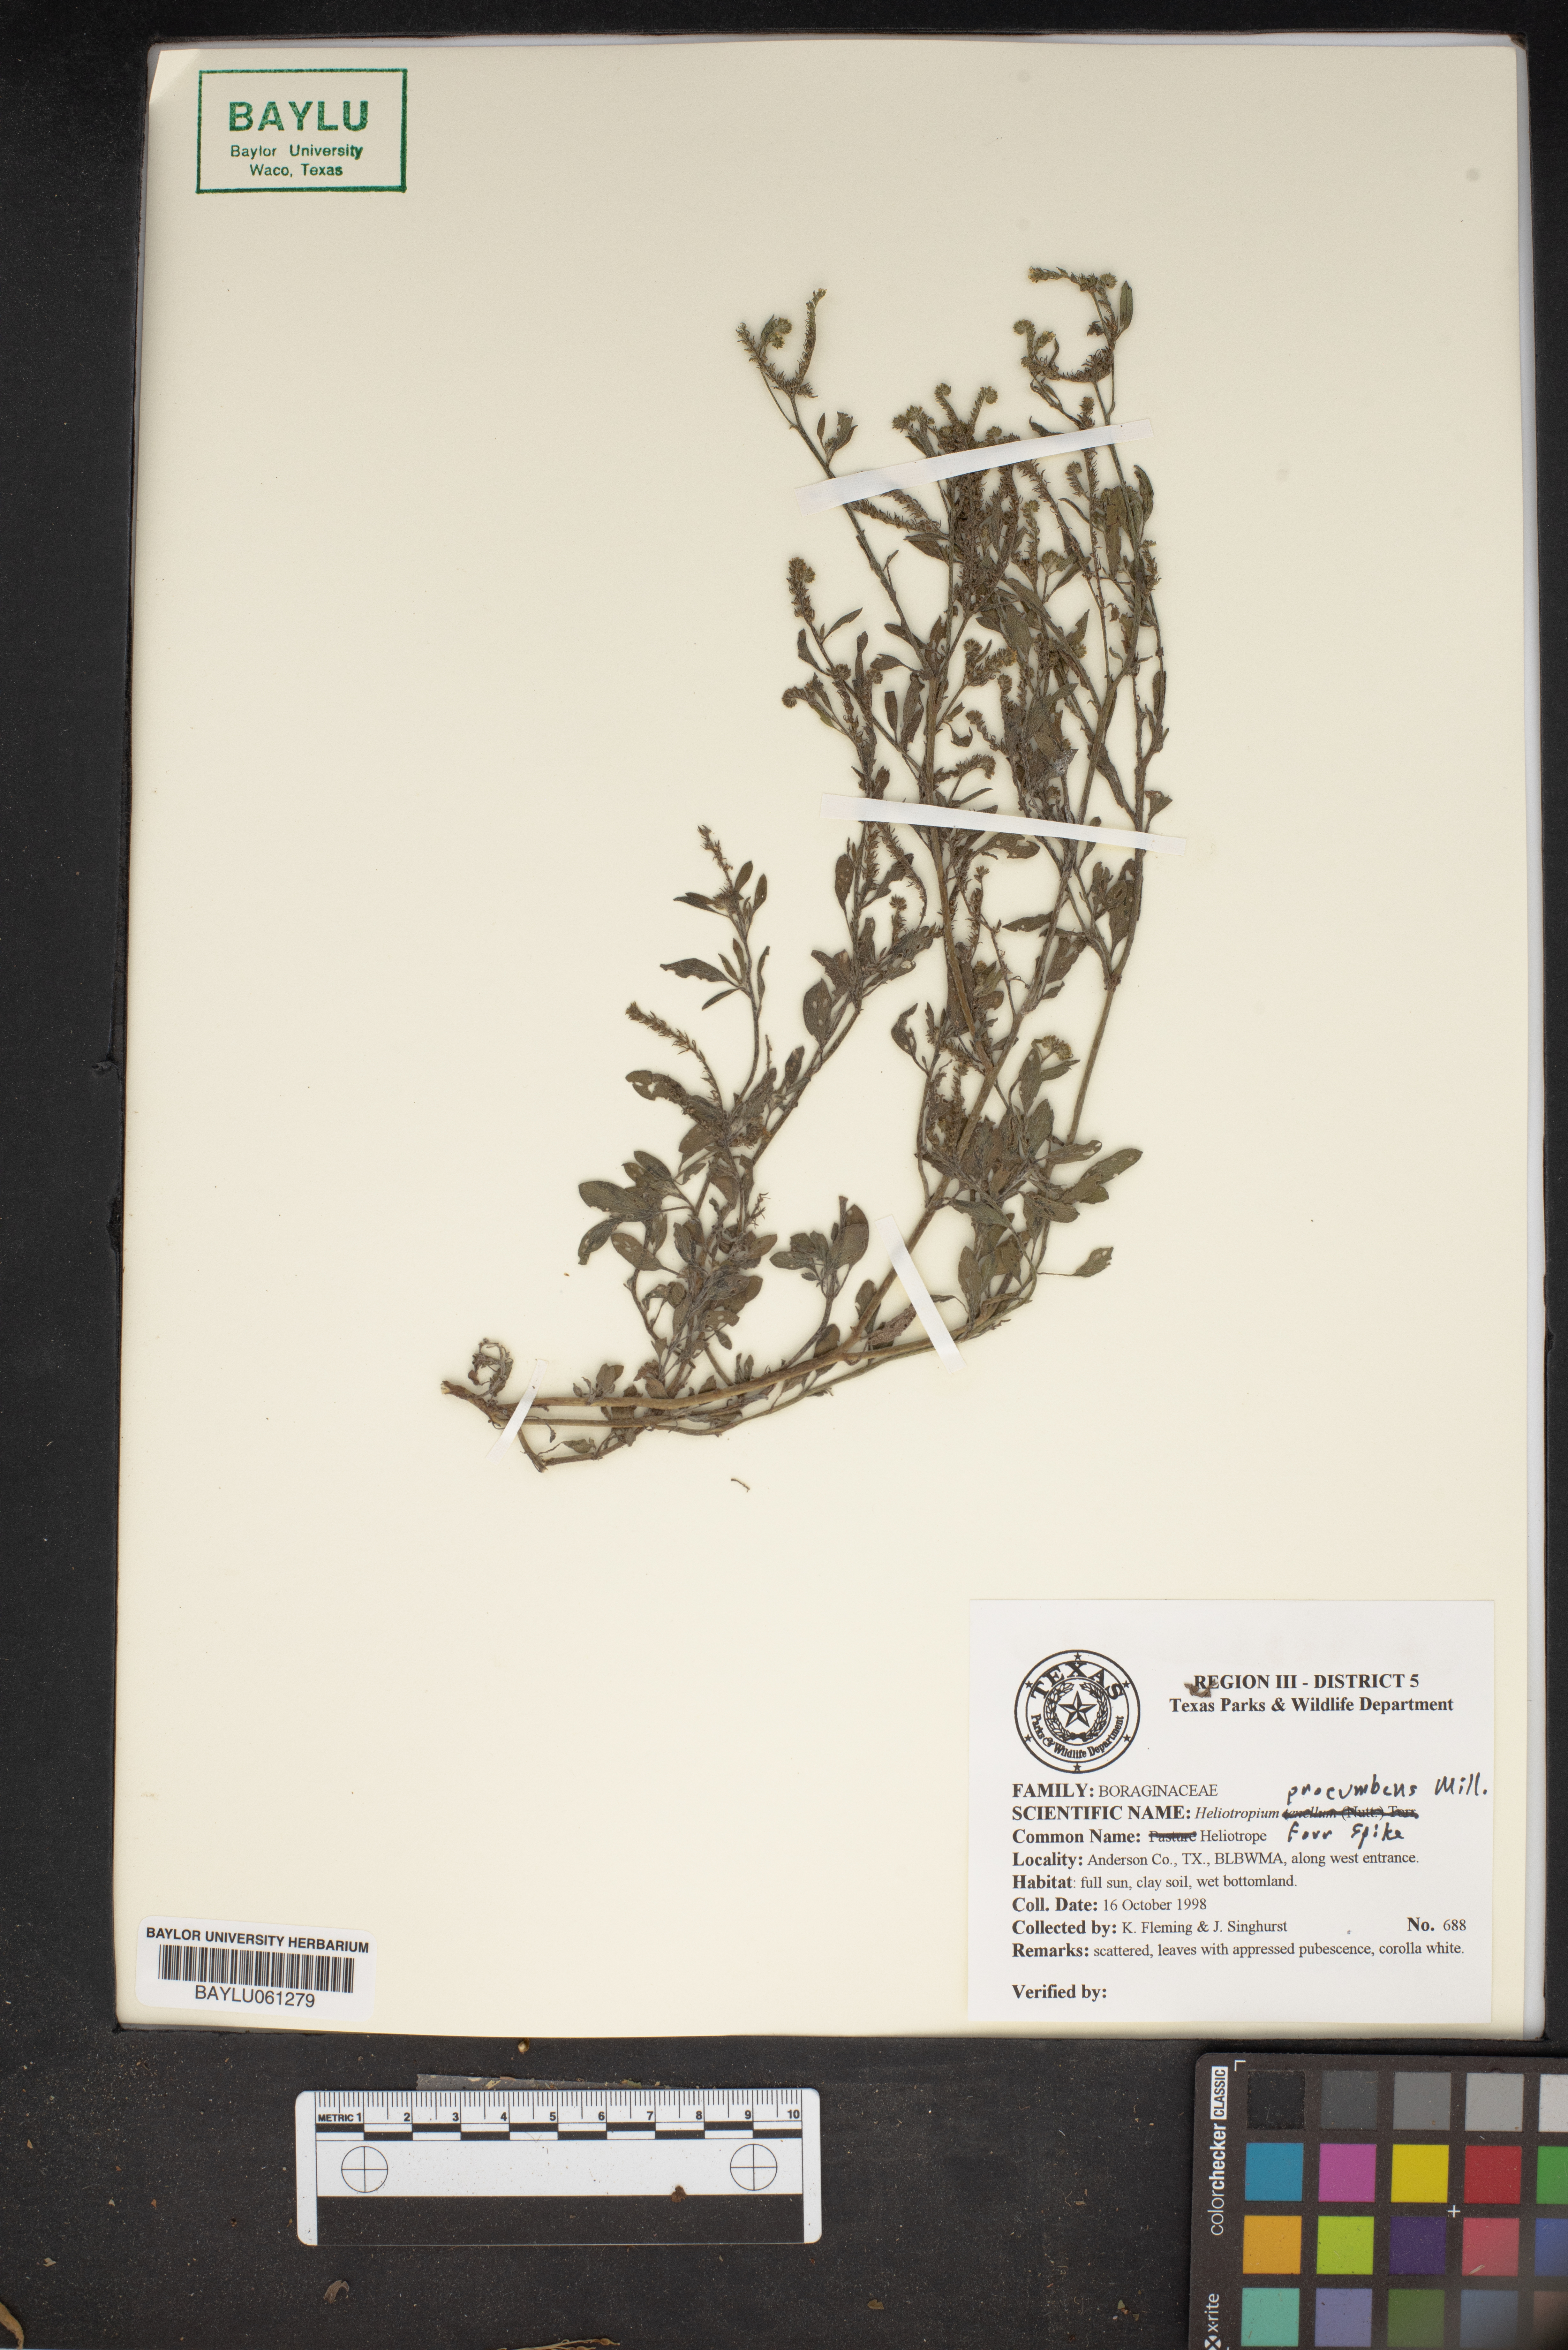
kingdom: Plantae
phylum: Tracheophyta
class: Magnoliopsida
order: Boraginales
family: Heliotropiaceae
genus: Euploca
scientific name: Euploca procumbens
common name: Fourspike heliotrope
